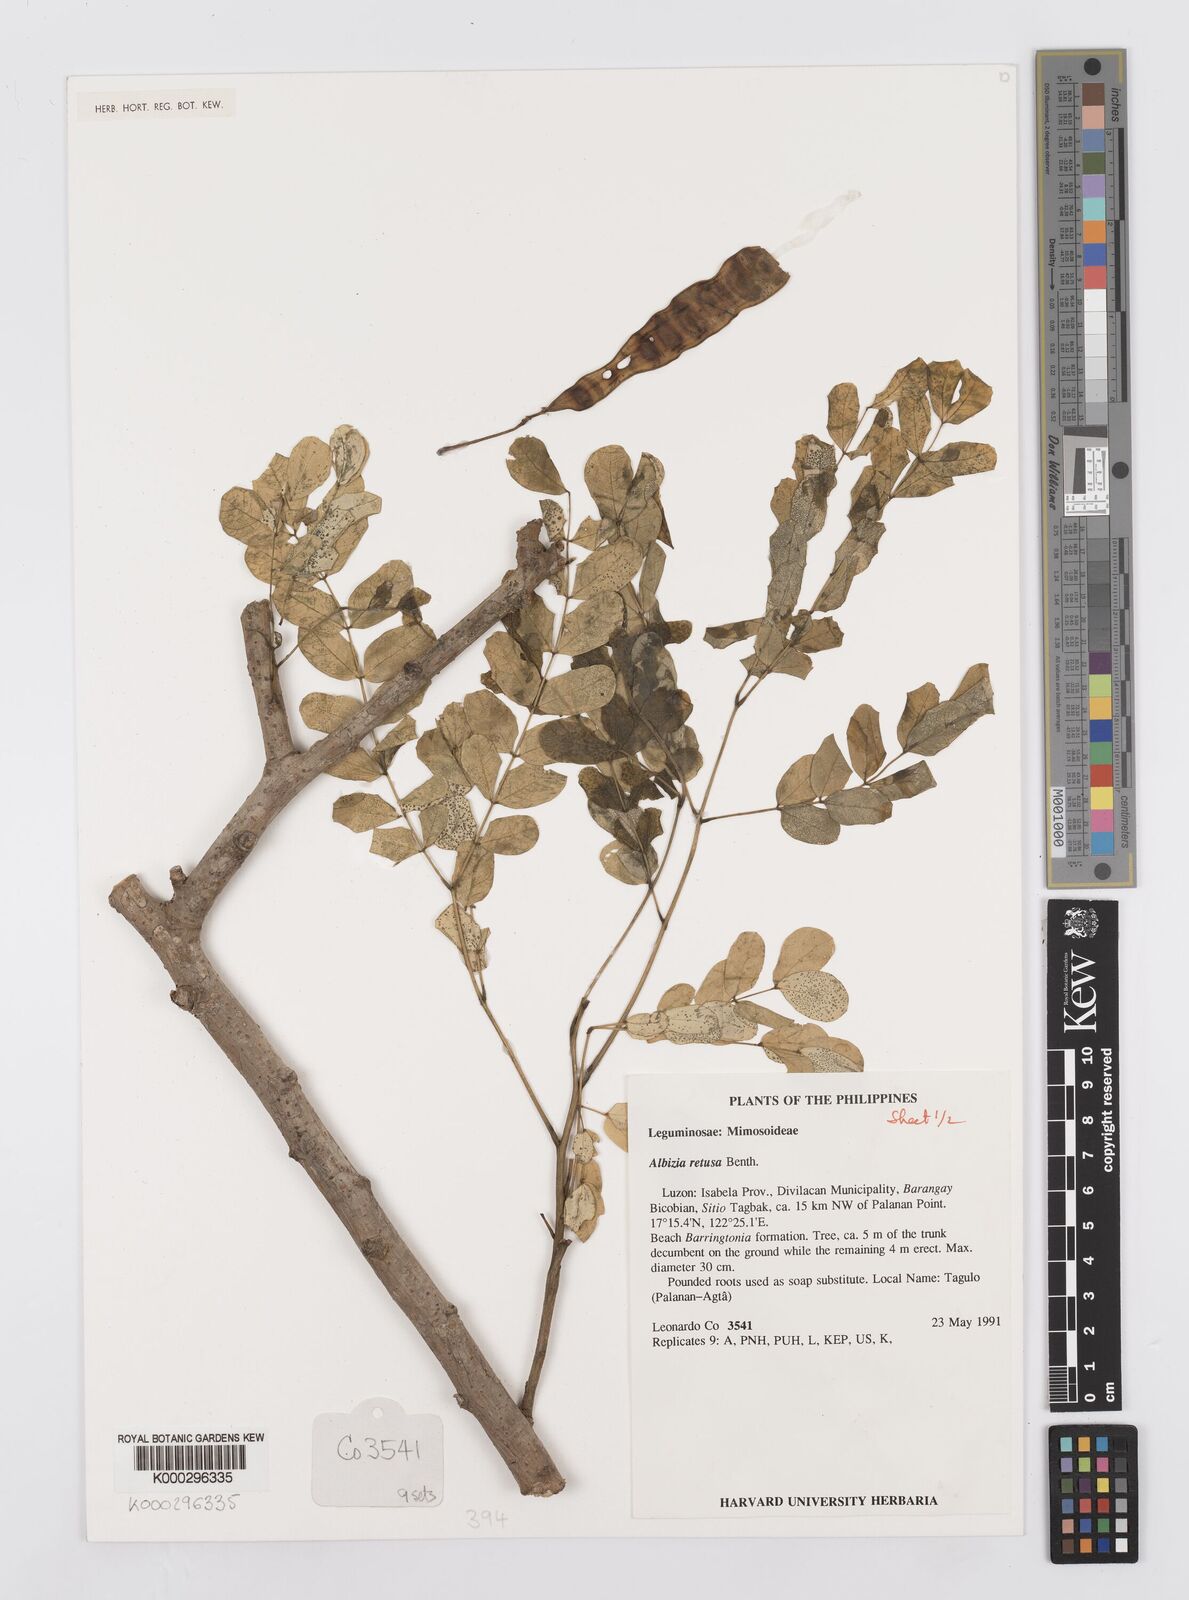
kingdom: Plantae
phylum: Tracheophyta
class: Magnoliopsida
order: Fabales
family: Fabaceae
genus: Albizia
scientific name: Albizia retusa
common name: Sea albizia
